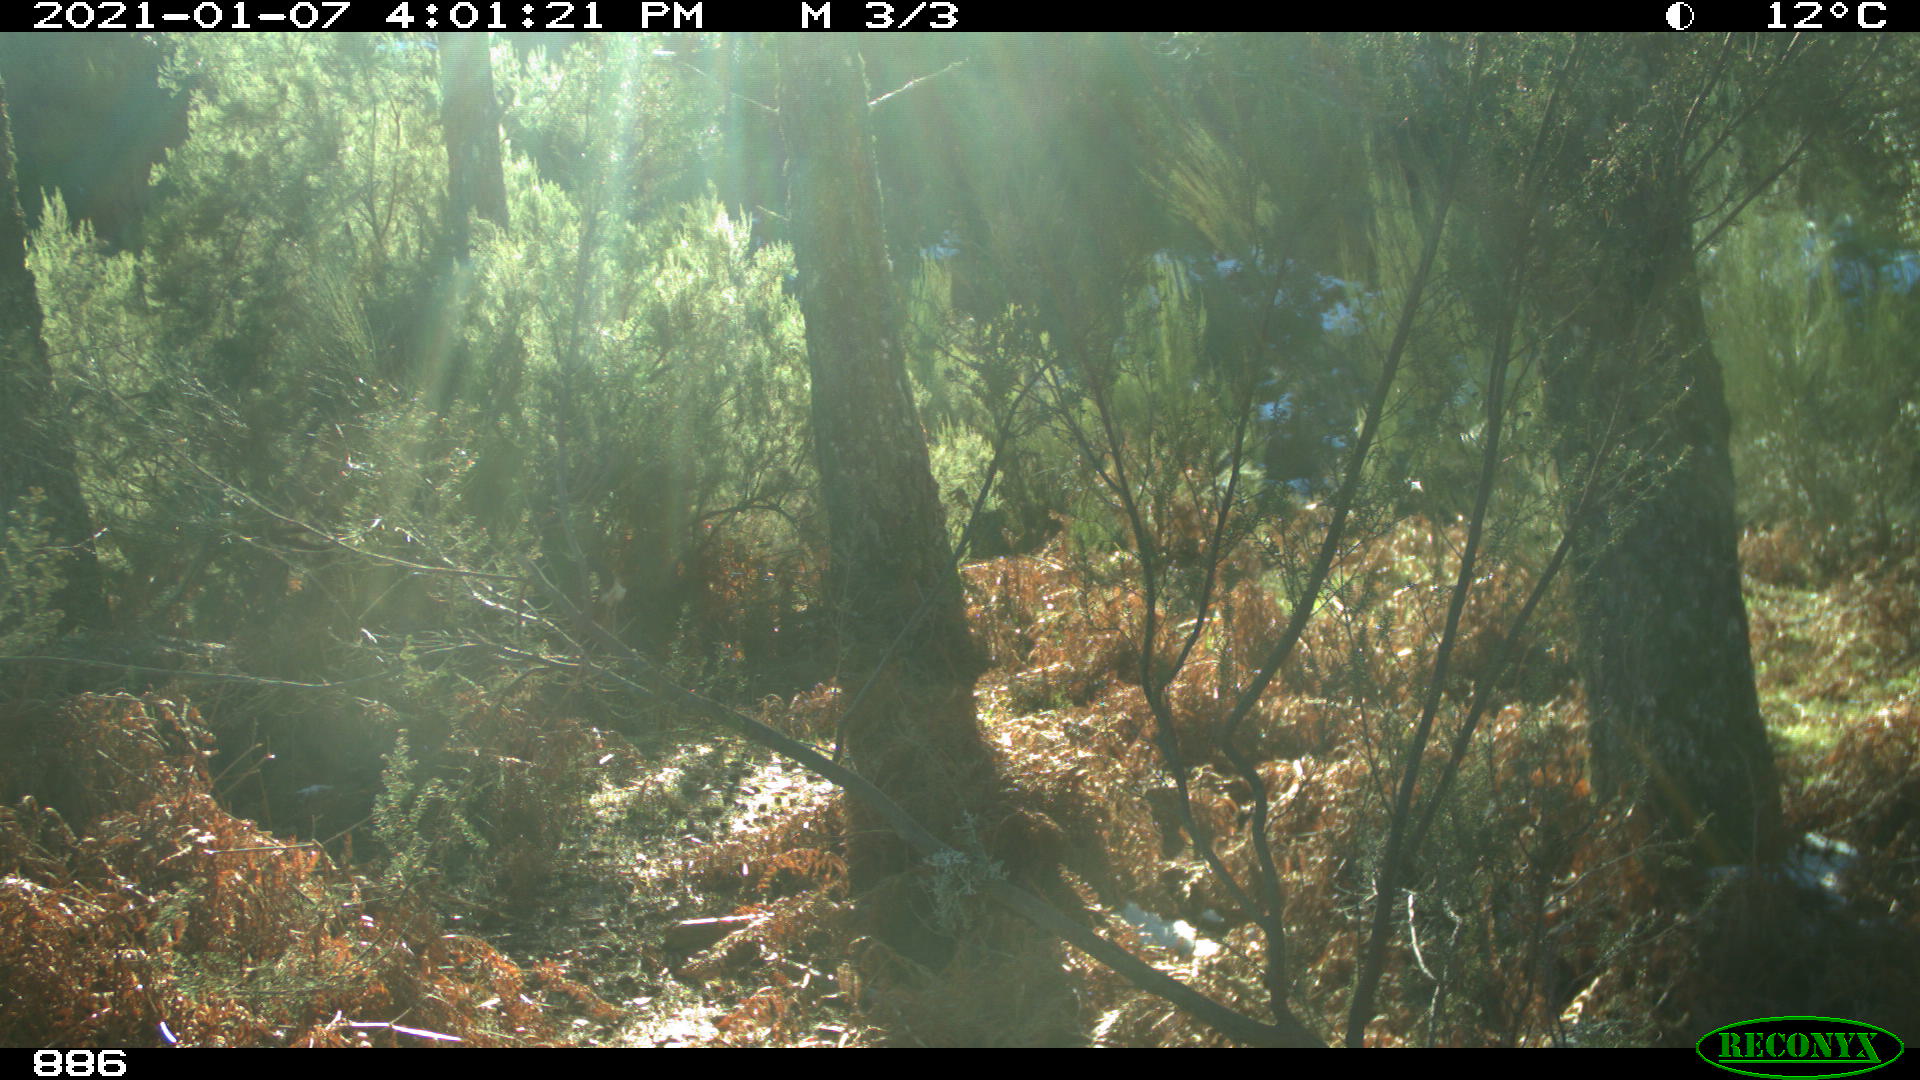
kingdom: Animalia
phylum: Chordata
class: Mammalia
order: Artiodactyla
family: Cervidae
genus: Capreolus
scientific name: Capreolus capreolus
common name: Western roe deer
